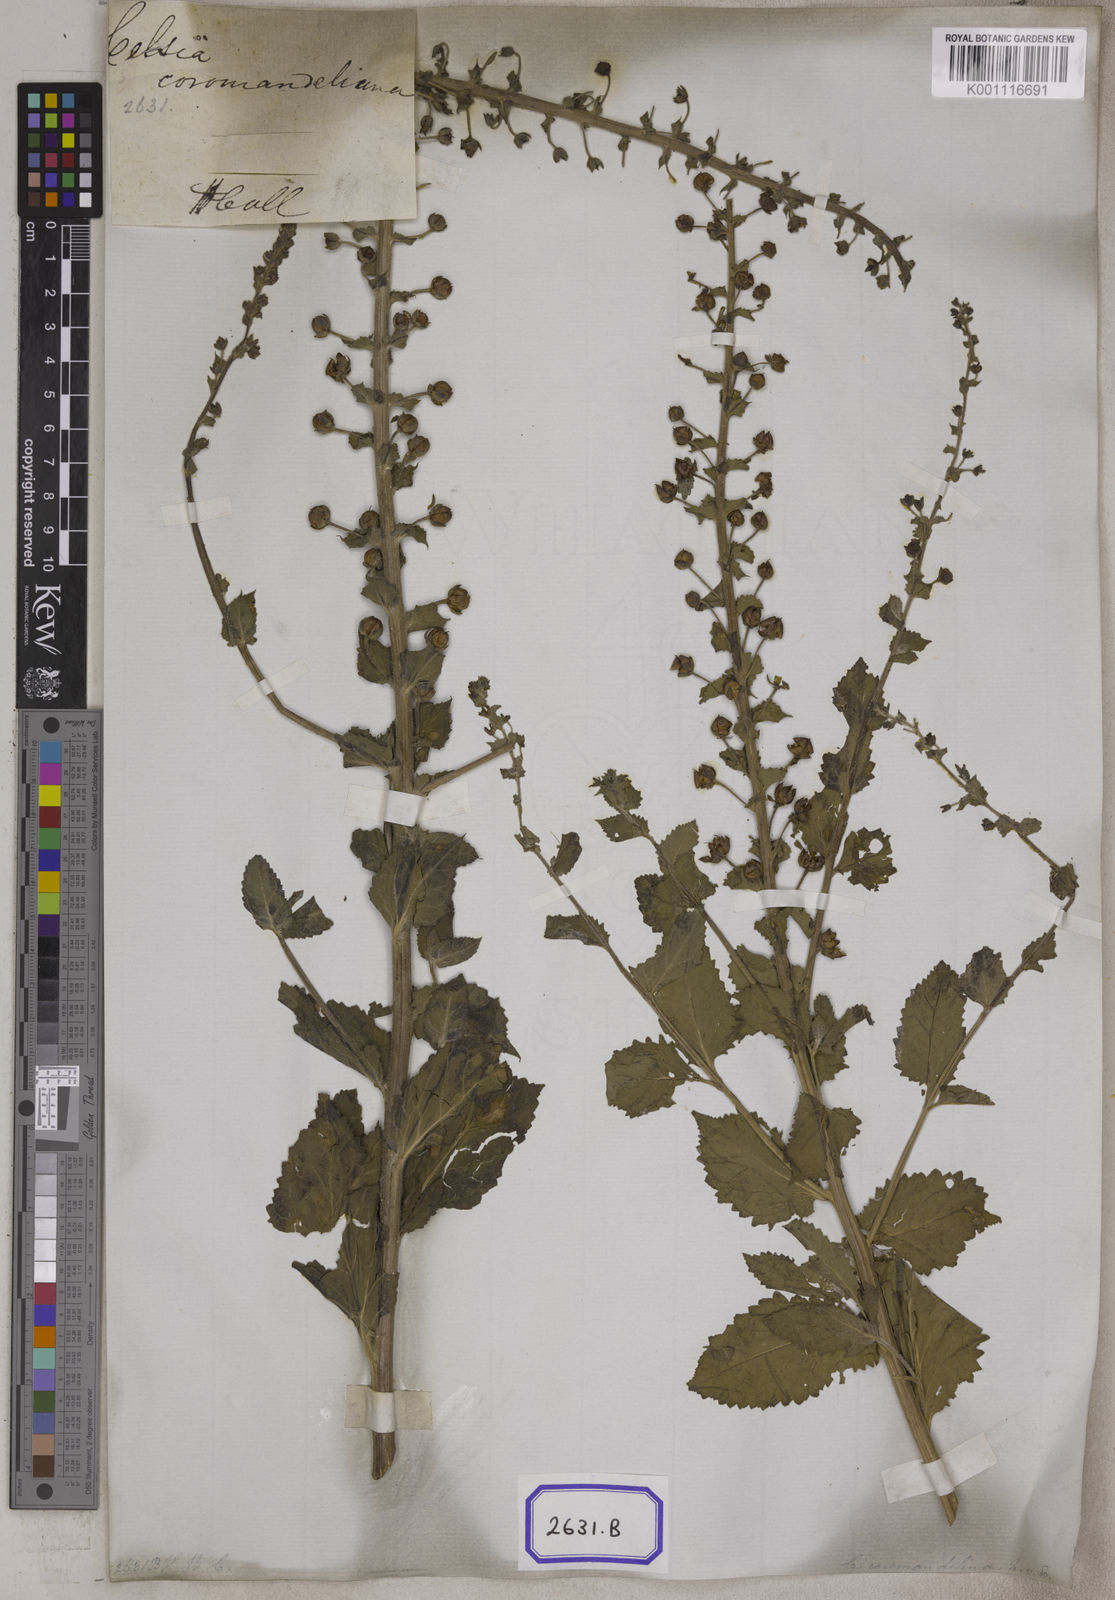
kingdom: Animalia
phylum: Arthropoda
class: Insecta
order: Lepidoptera
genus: Celsia
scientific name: Celsia
